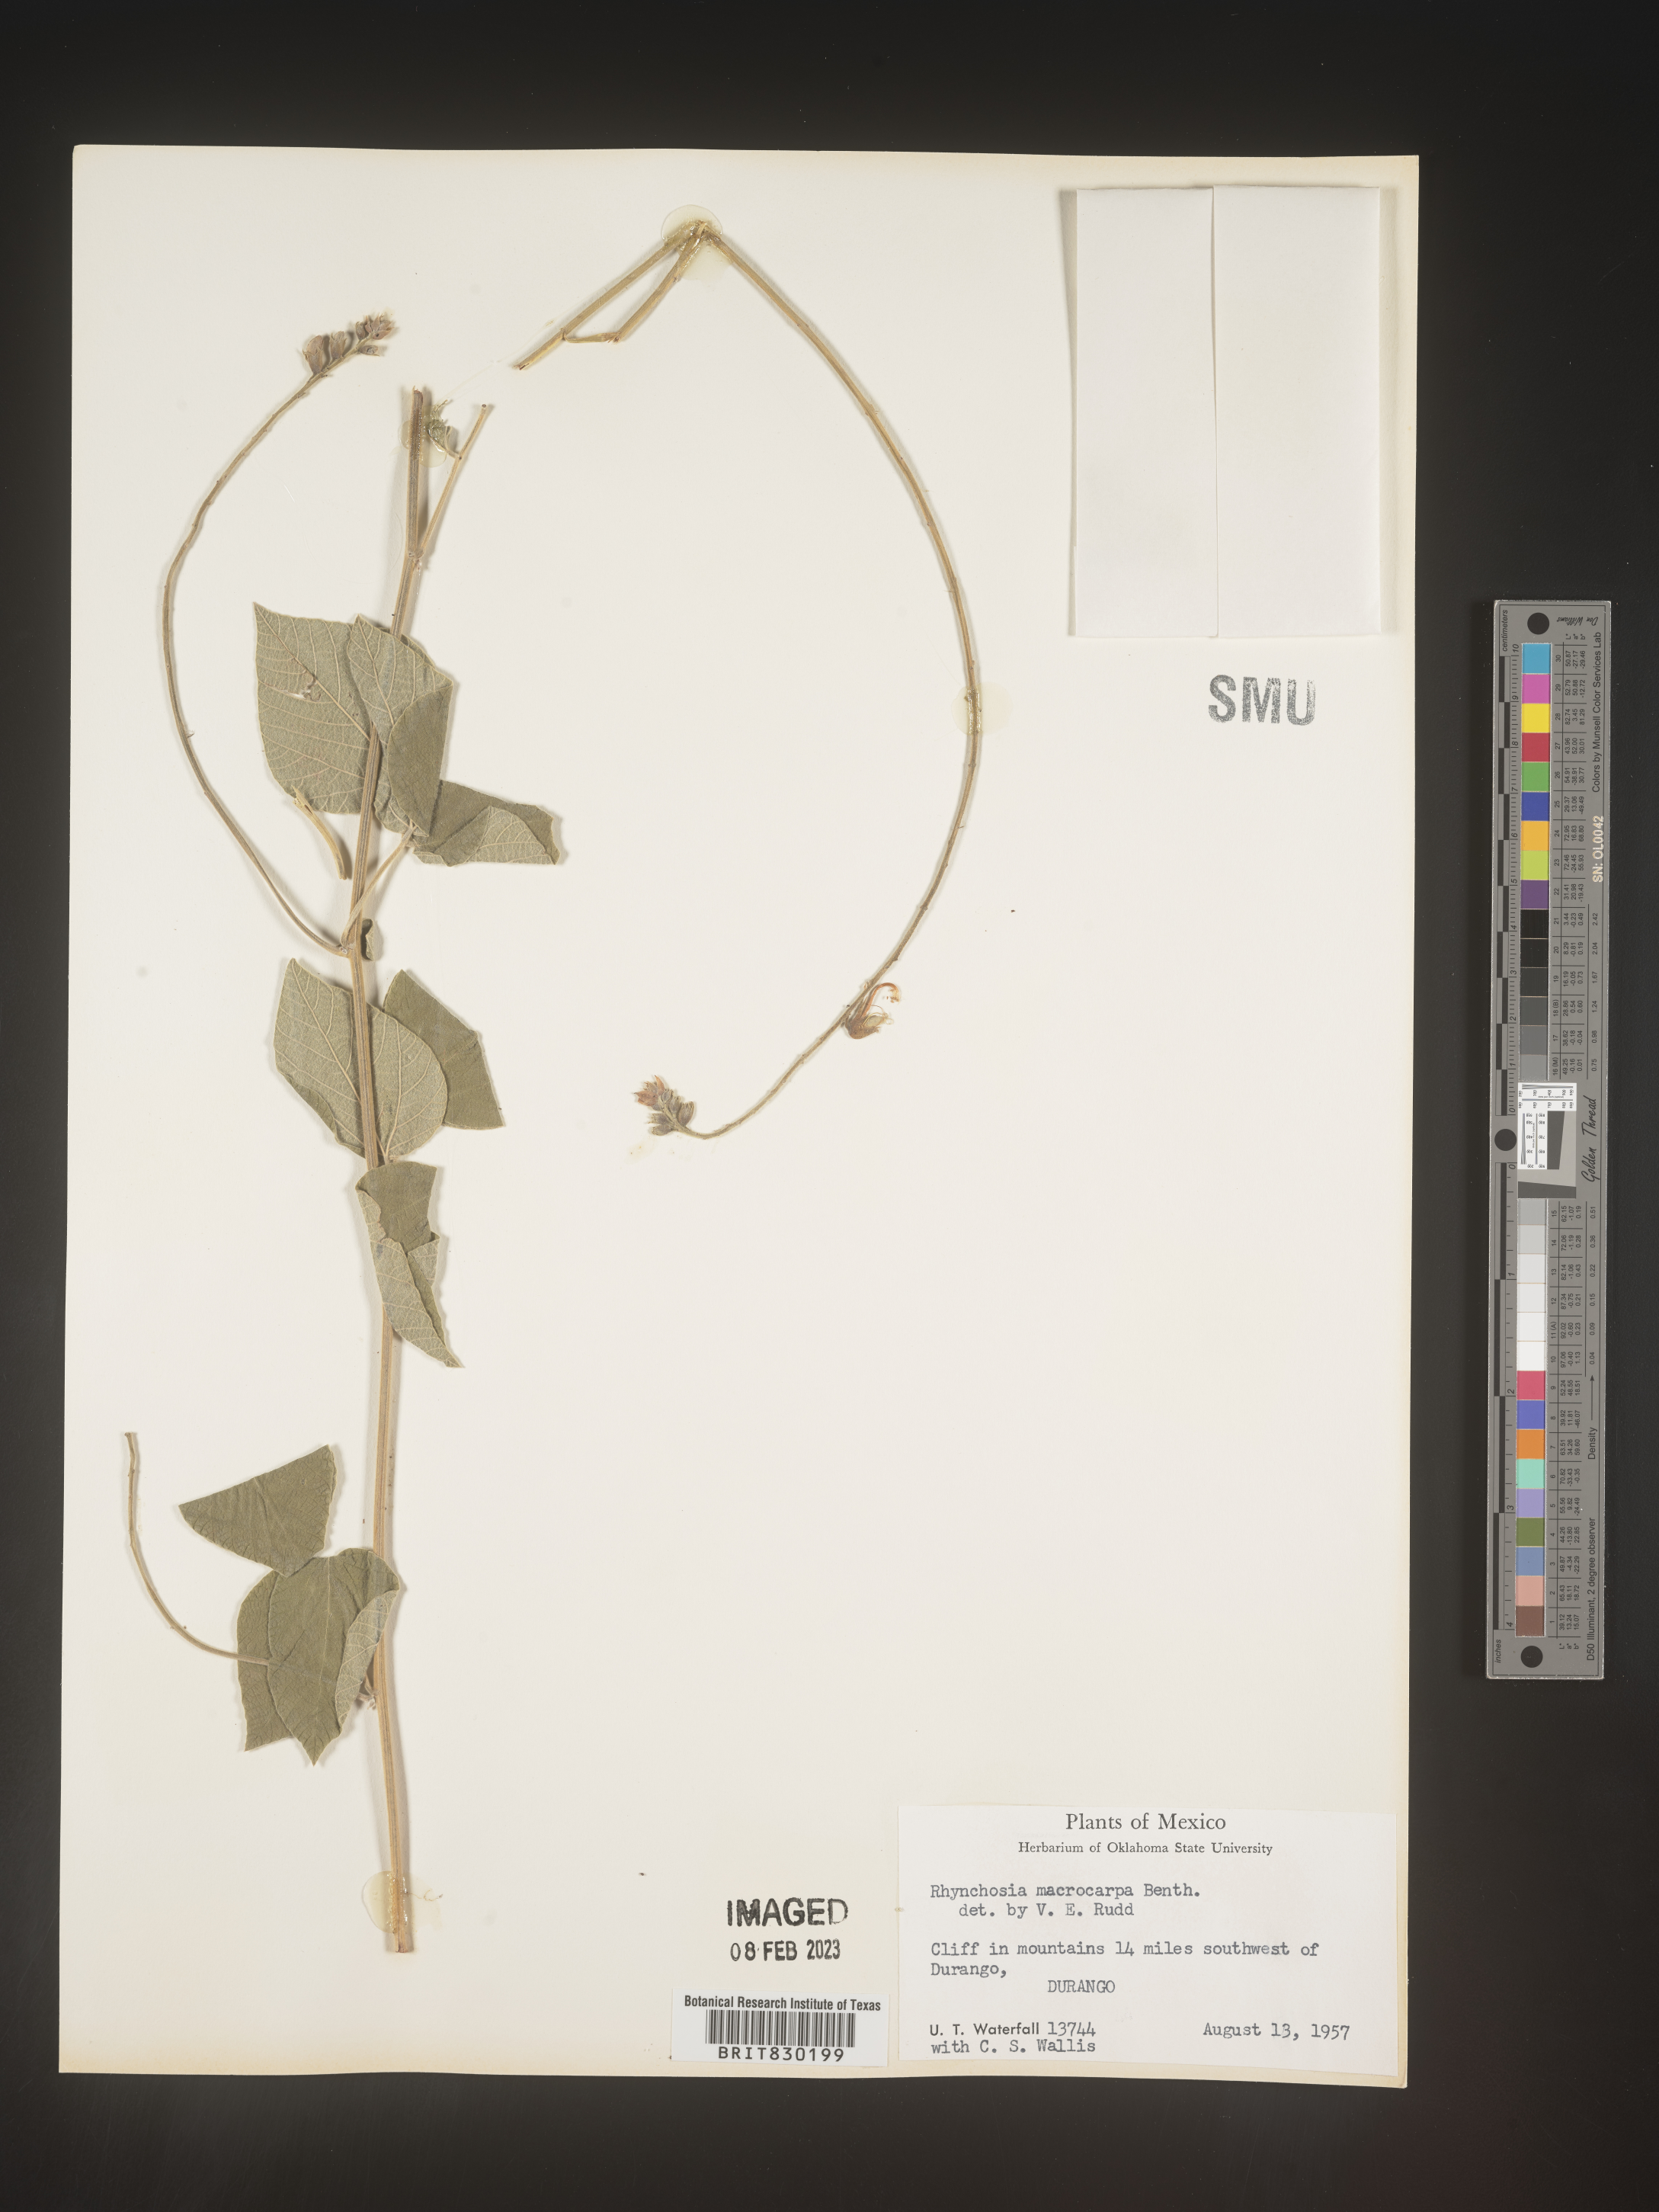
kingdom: Plantae
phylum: Tracheophyta
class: Magnoliopsida
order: Fabales
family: Fabaceae
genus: Rhynchosia
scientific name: Rhynchosia
